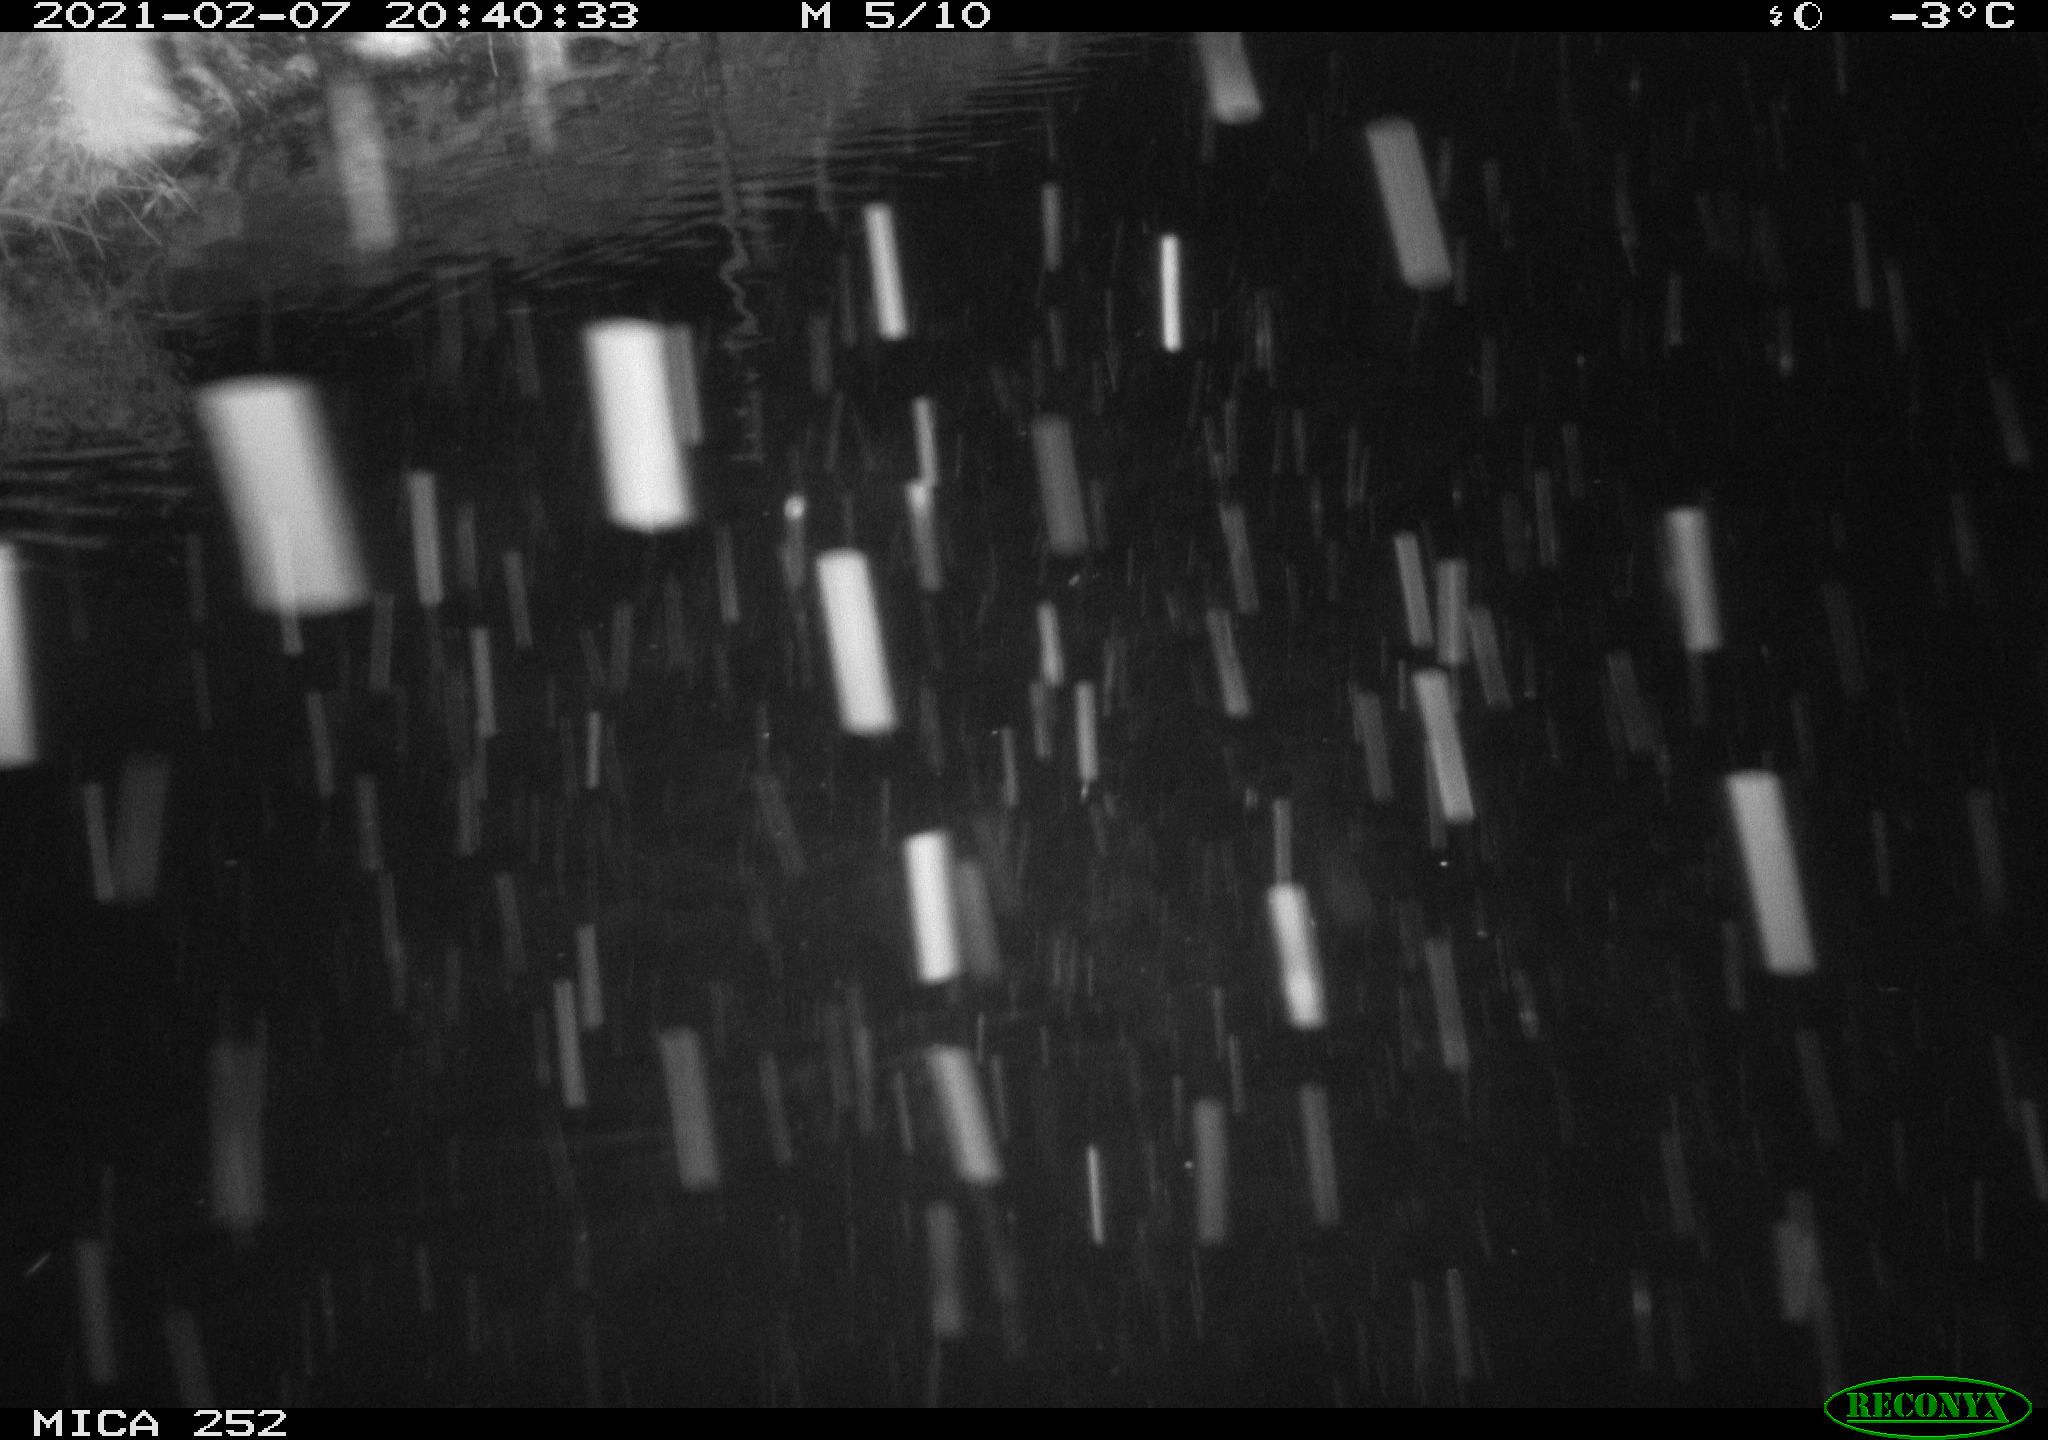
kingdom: Animalia
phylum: Chordata
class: Aves
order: Anseriformes
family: Anatidae
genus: Anas
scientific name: Anas crecca
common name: Eurasian teal
